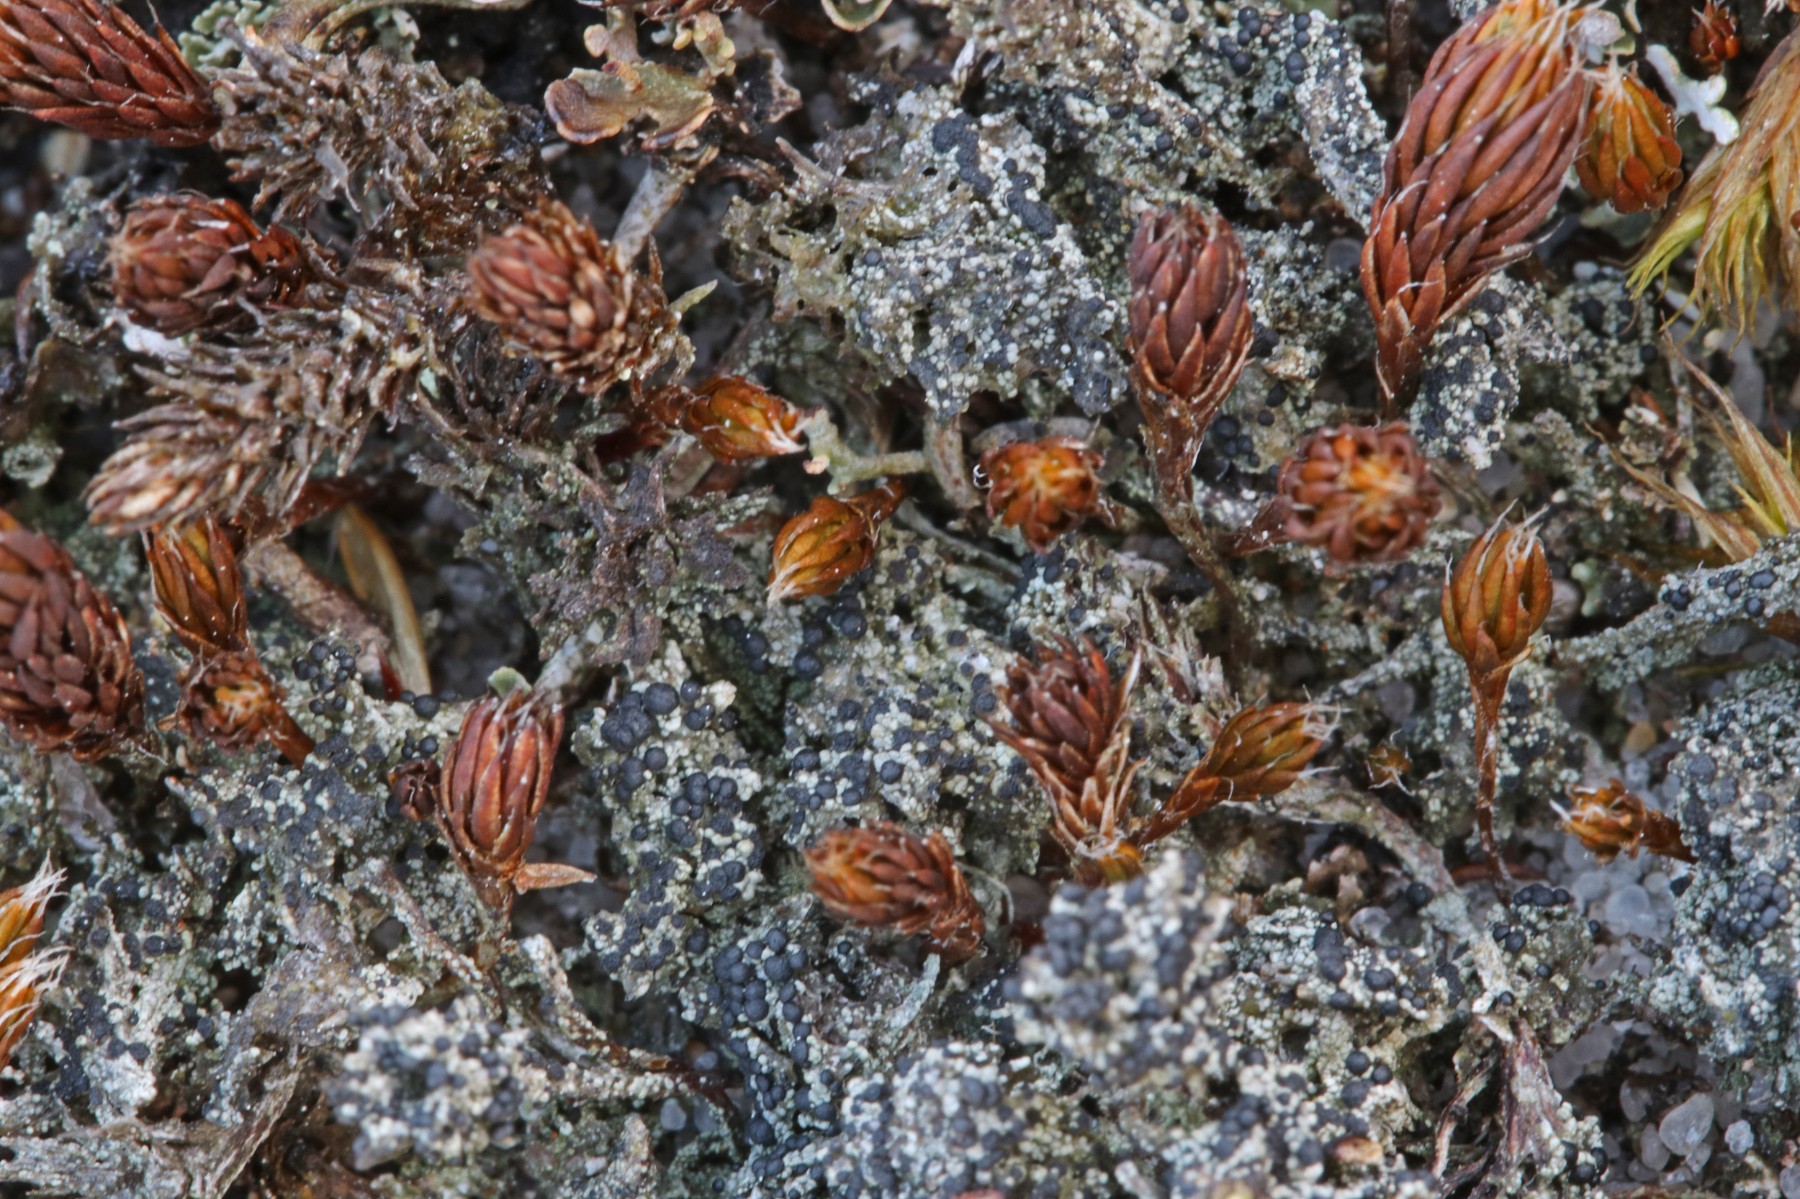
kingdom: Fungi
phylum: Ascomycota
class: Lecanoromycetes
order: Lecanorales
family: Byssolomataceae
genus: Micarea
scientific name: Micarea lignaria
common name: tørve-knaplav
